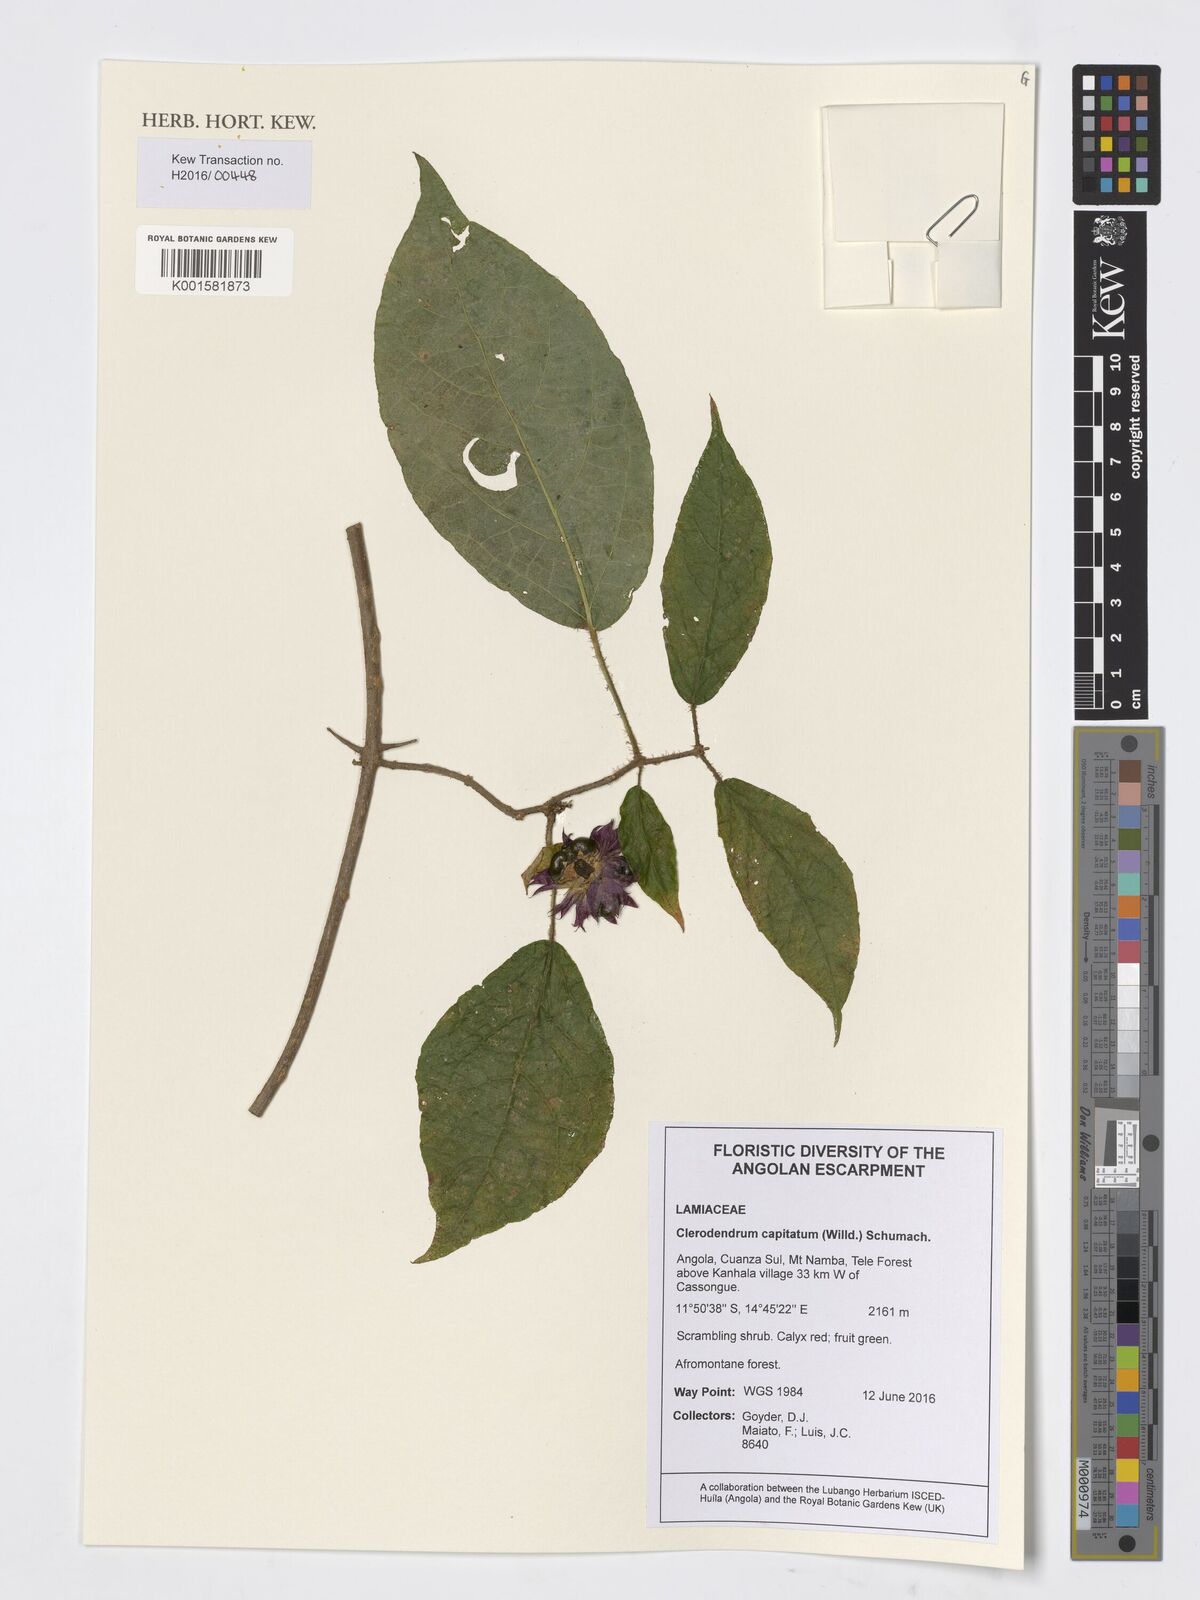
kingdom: Plantae
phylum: Tracheophyta
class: Magnoliopsida
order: Lamiales
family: Lamiaceae
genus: Clerodendrum
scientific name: Clerodendrum capitatum
